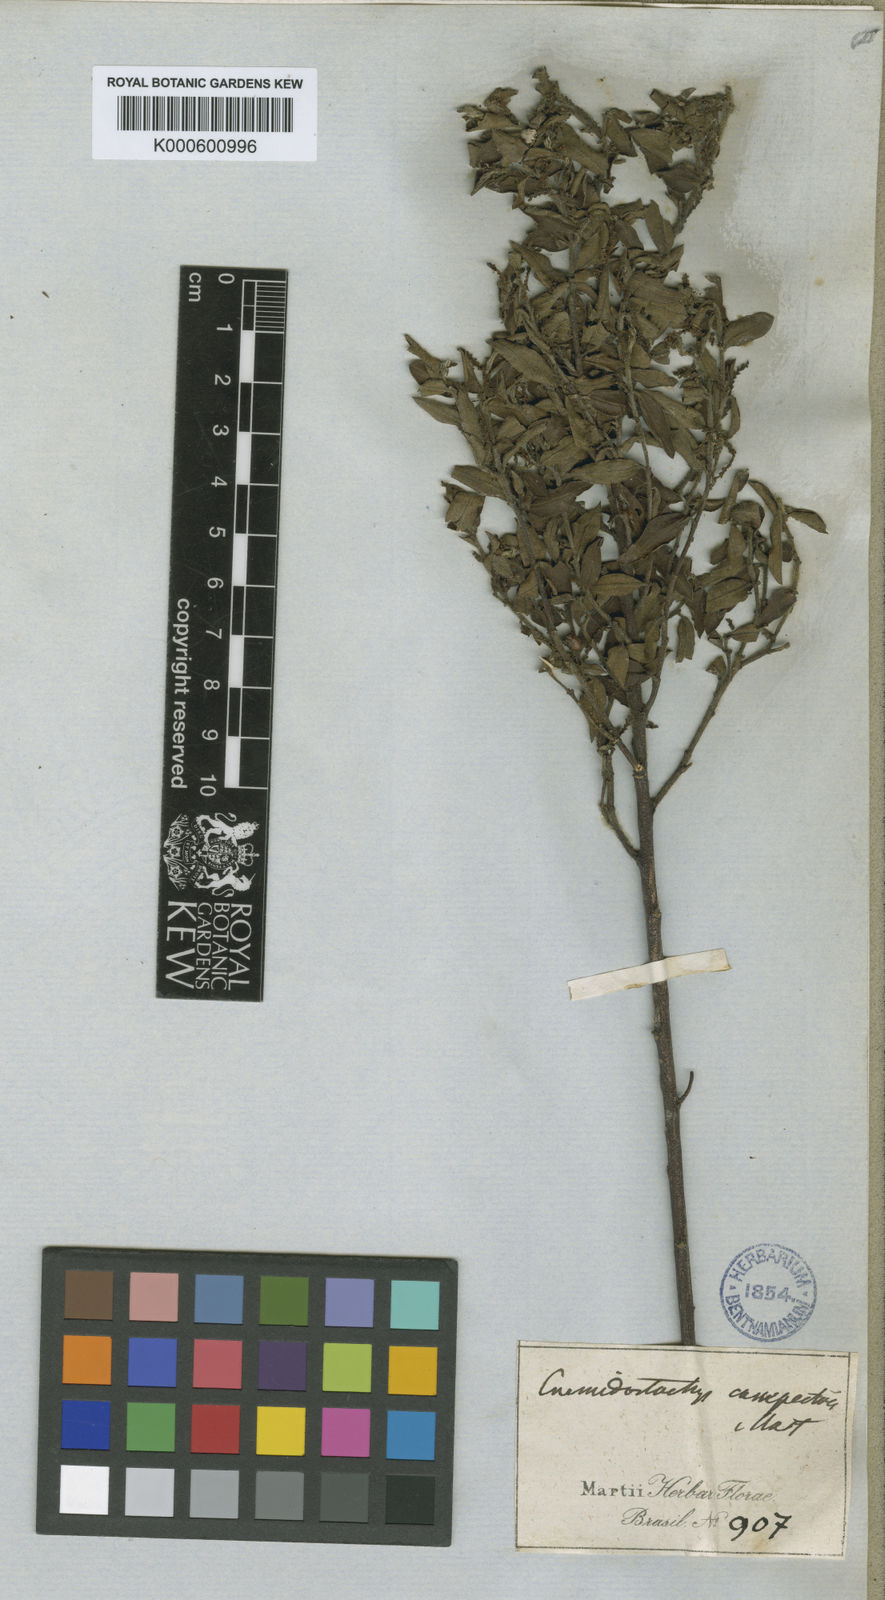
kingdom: Plantae
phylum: Tracheophyta
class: Magnoliopsida
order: Malpighiales
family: Euphorbiaceae
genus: Microstachys
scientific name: Microstachys corniculata
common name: Hato tejas
